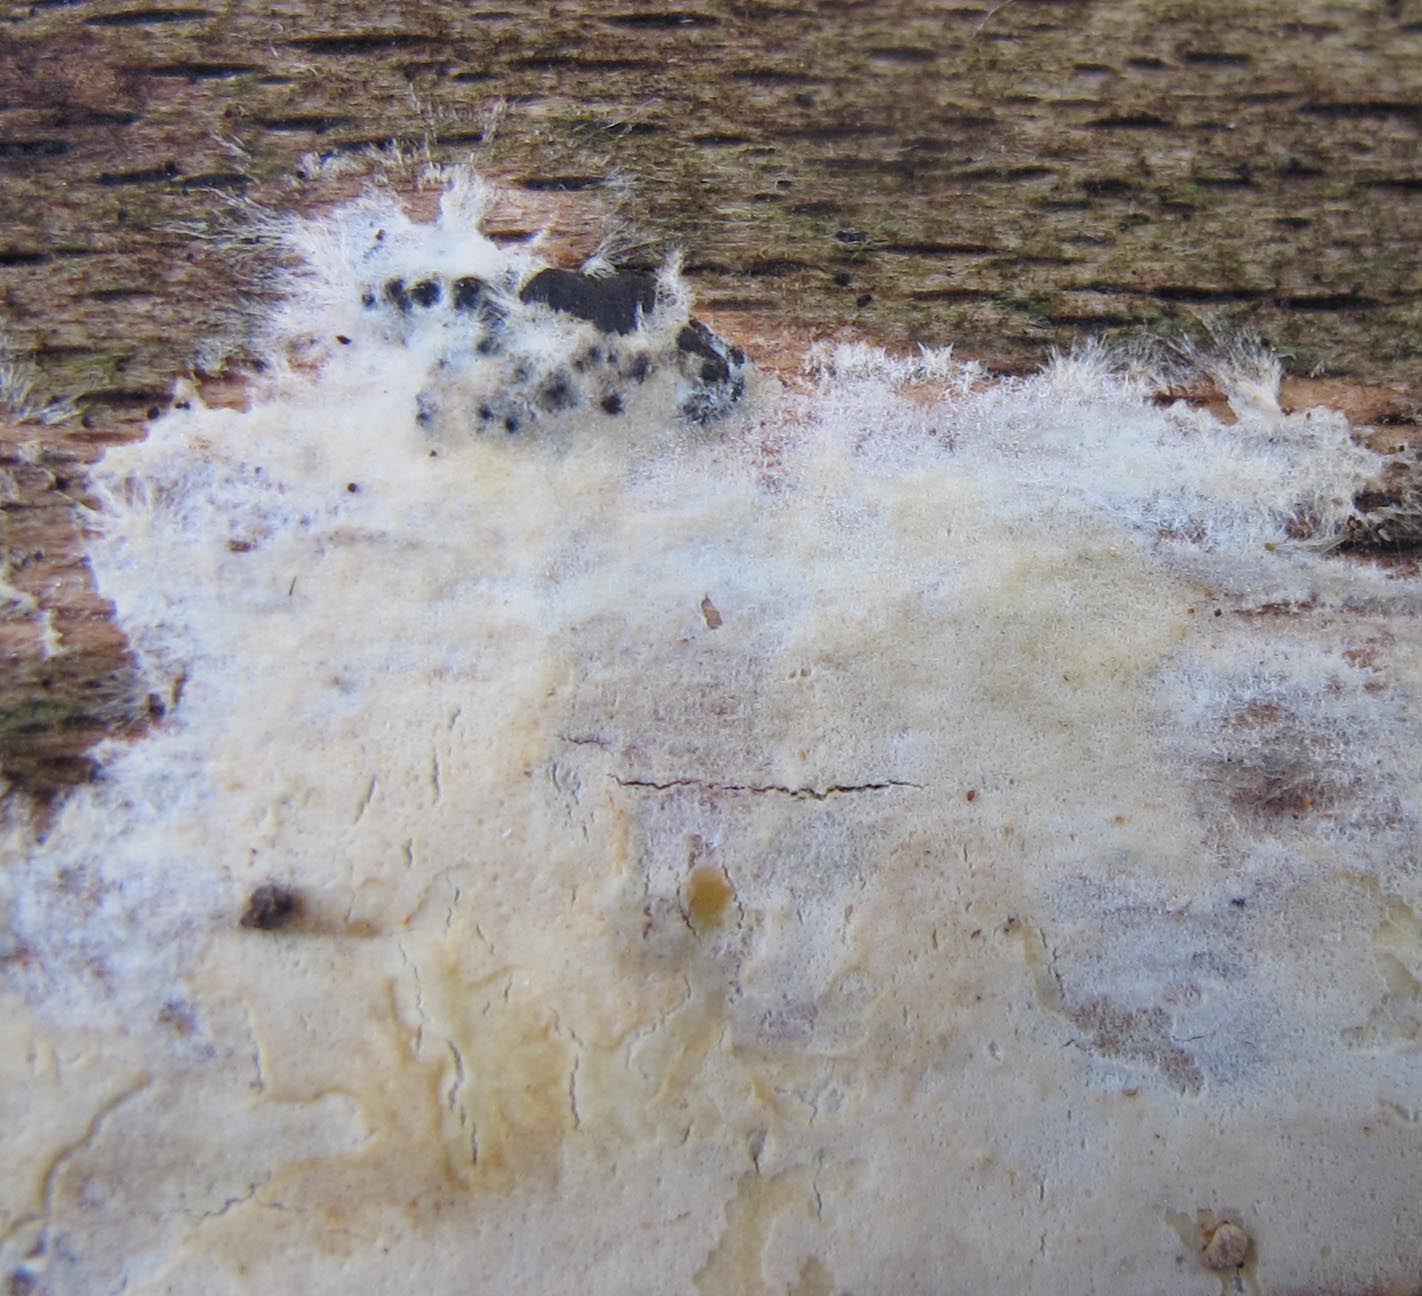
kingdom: Fungi
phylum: Basidiomycota
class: Agaricomycetes
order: Polyporales
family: Phanerochaetaceae
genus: Phanerochaete
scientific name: Phanerochaete velutina
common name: dunet randtråd
